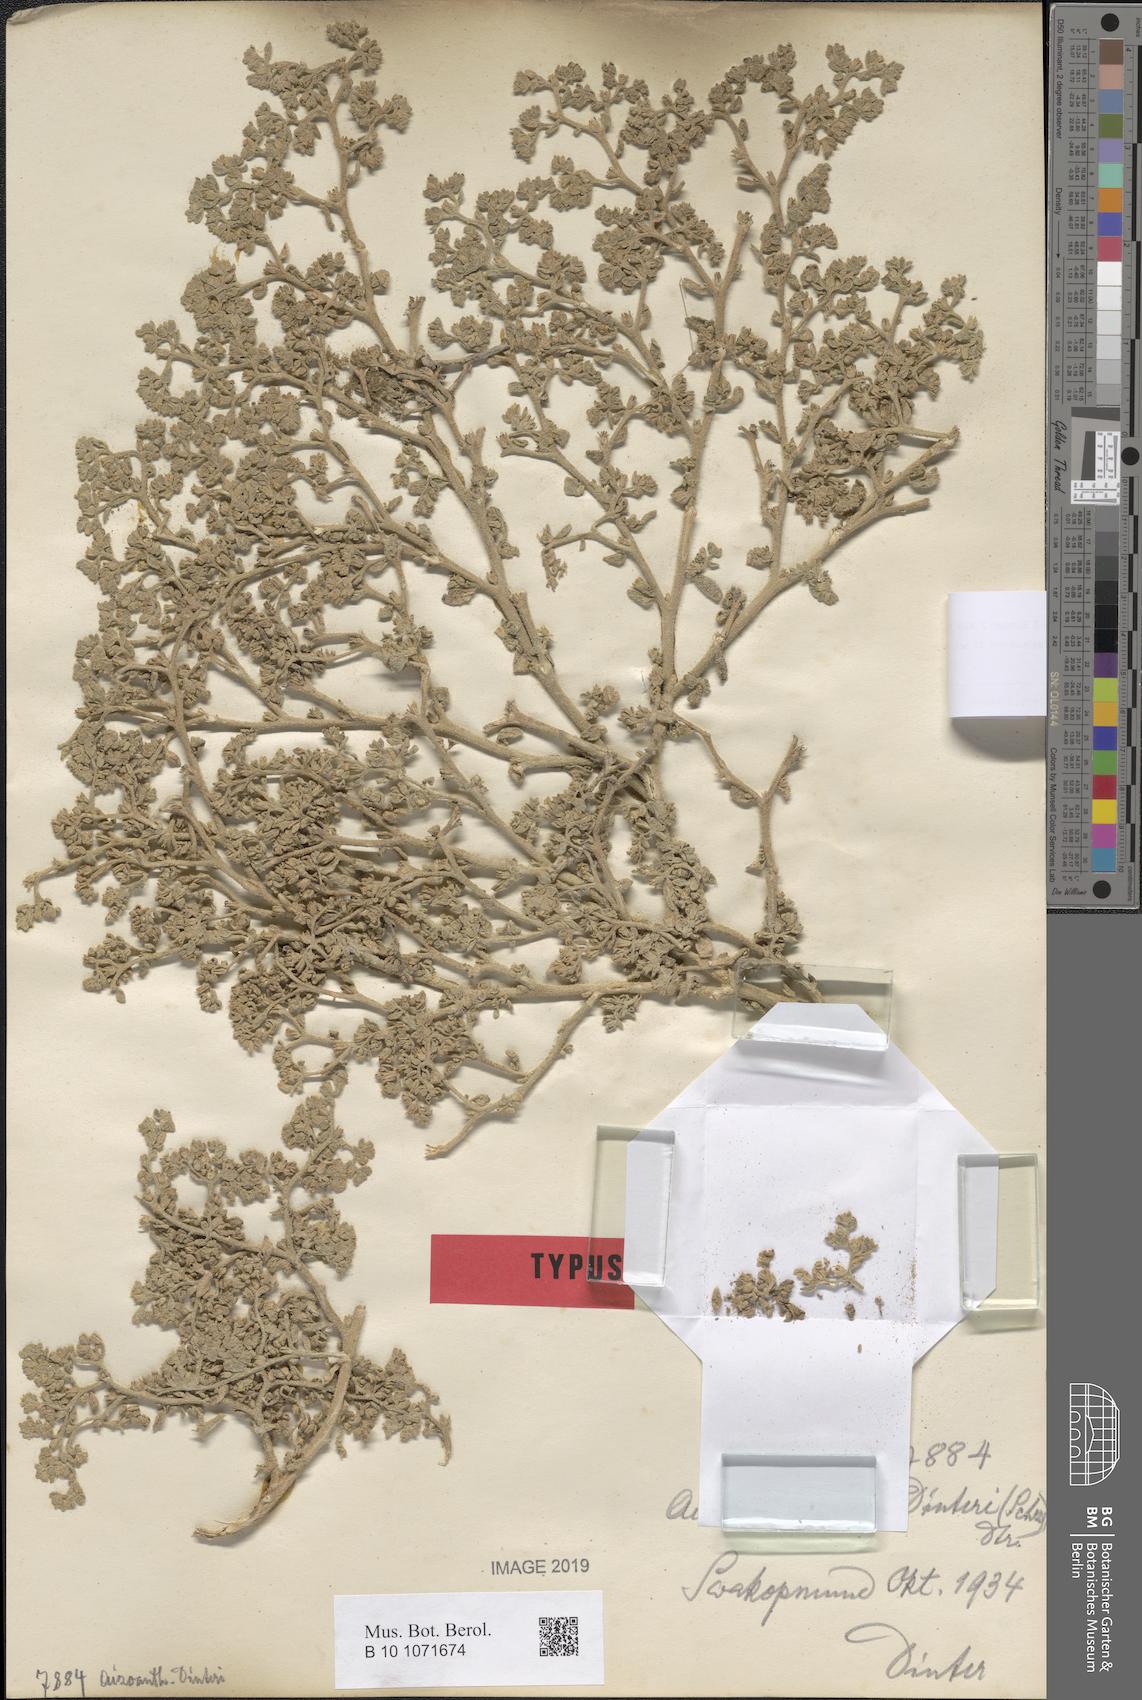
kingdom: Plantae
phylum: Tracheophyta
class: Magnoliopsida
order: Caryophyllales
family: Aizoaceae
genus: Aizoanthemum
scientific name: Aizoanthemum galenioides
